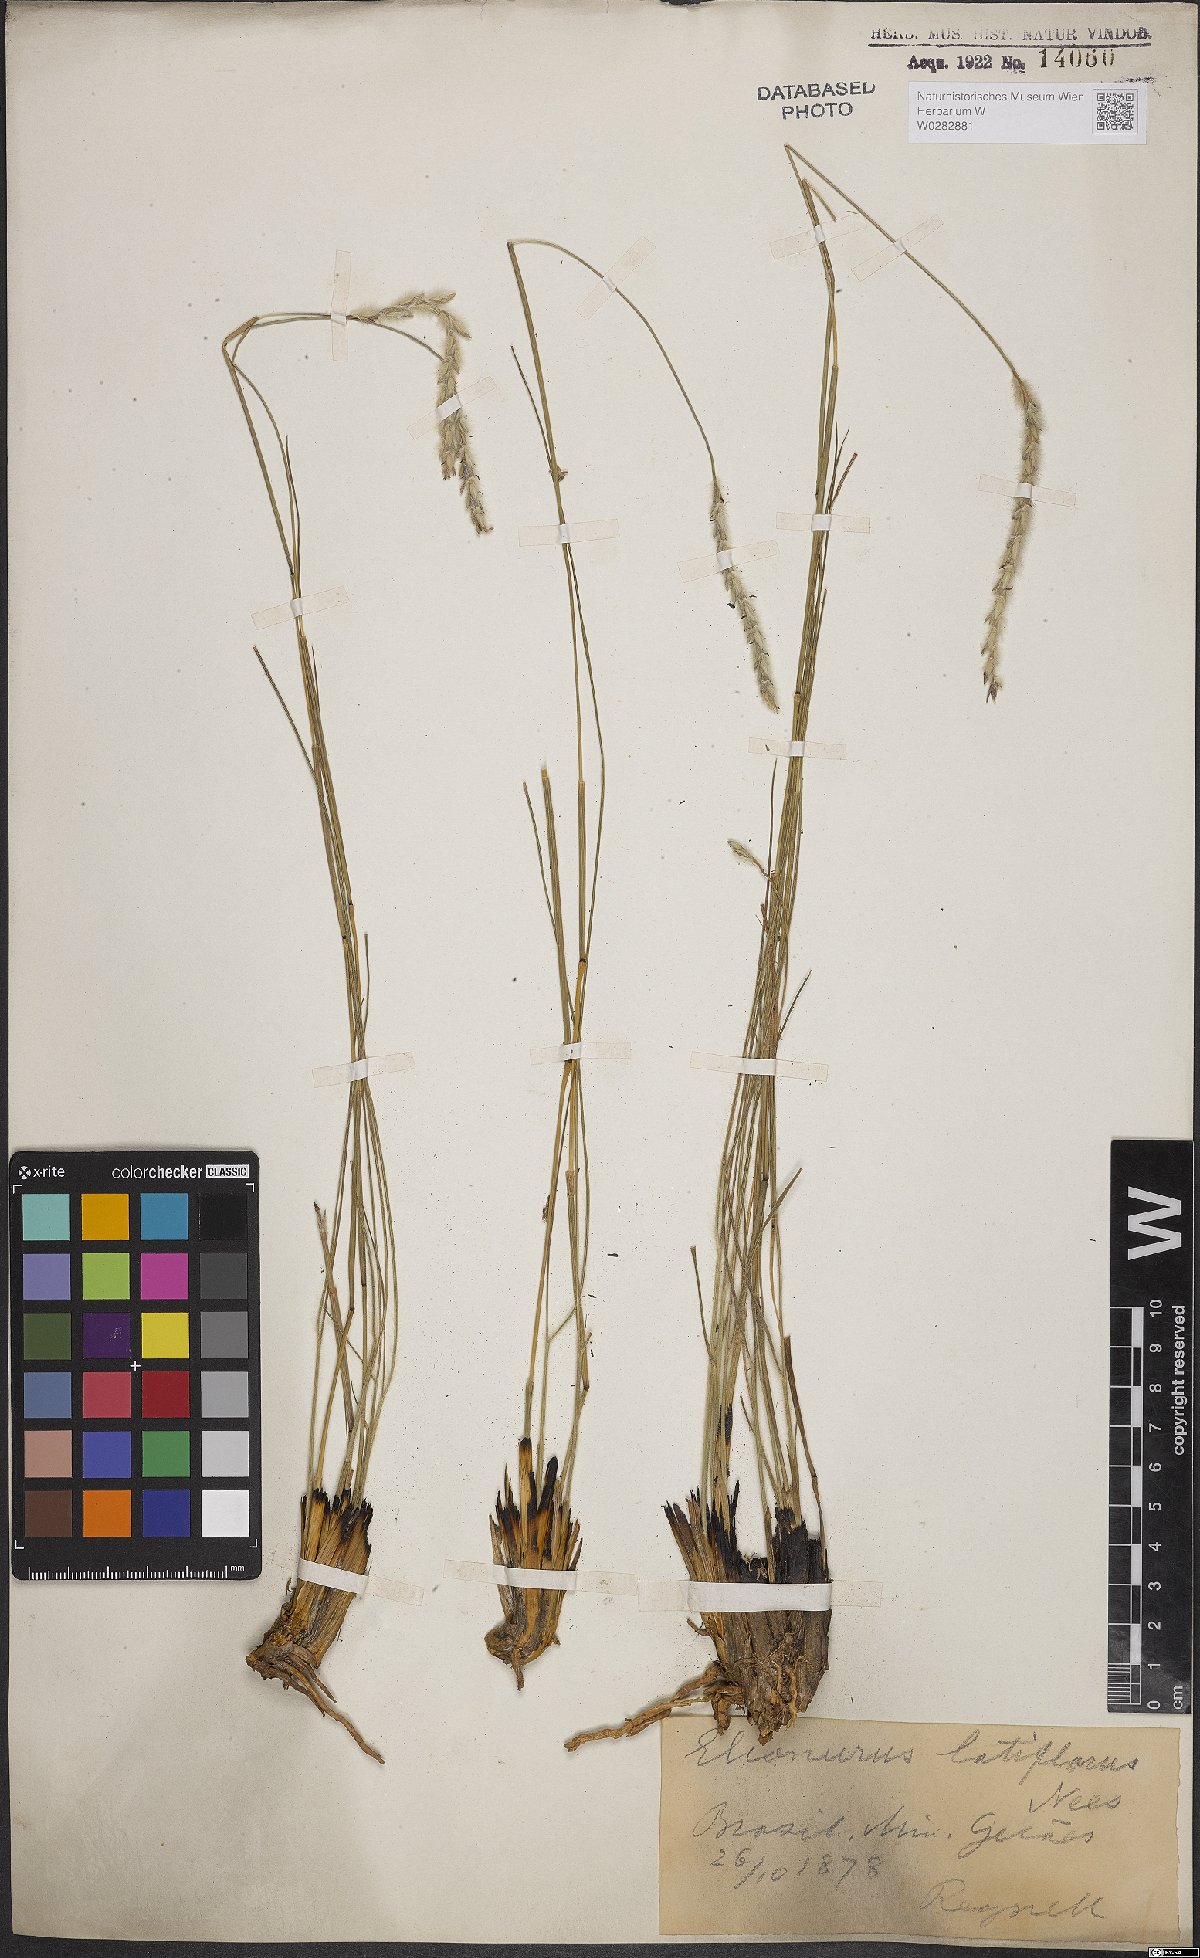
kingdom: Plantae
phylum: Tracheophyta
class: Liliopsida
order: Poales
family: Poaceae
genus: Elionurus
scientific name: Elionurus muticus
